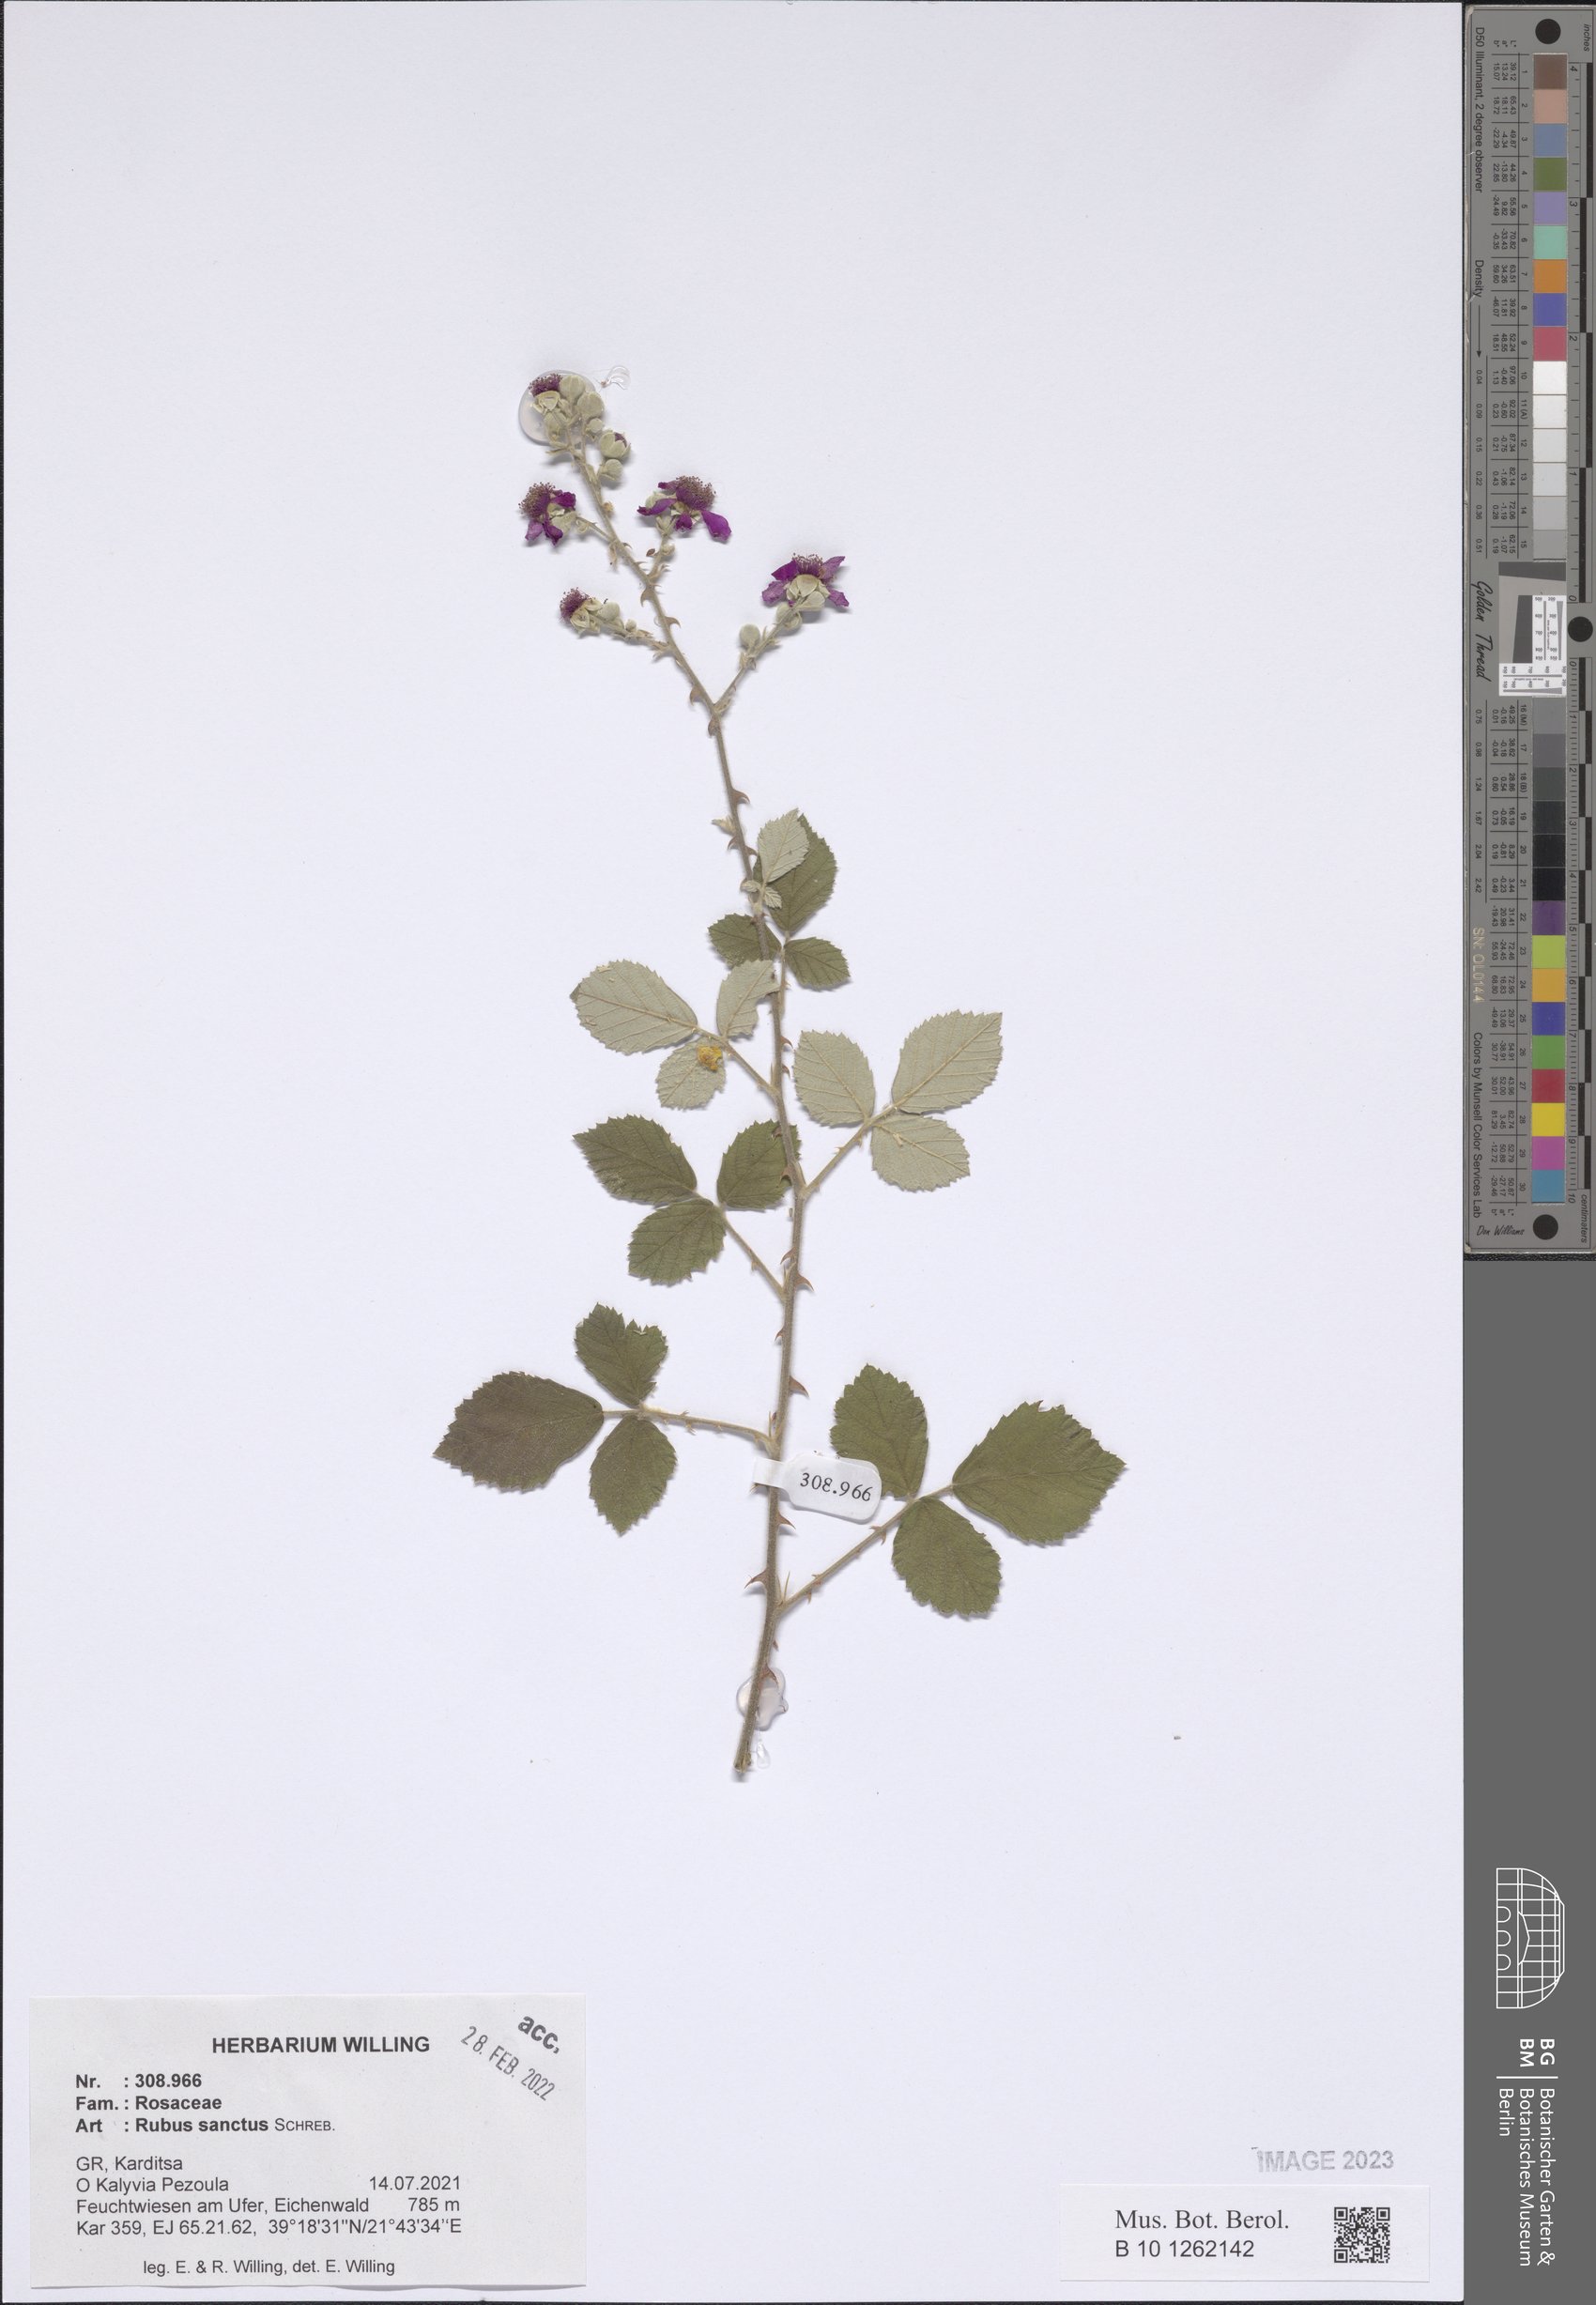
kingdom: Plantae
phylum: Tracheophyta
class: Magnoliopsida
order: Rosales
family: Rosaceae
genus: Rubus
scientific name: Rubus sanctus
